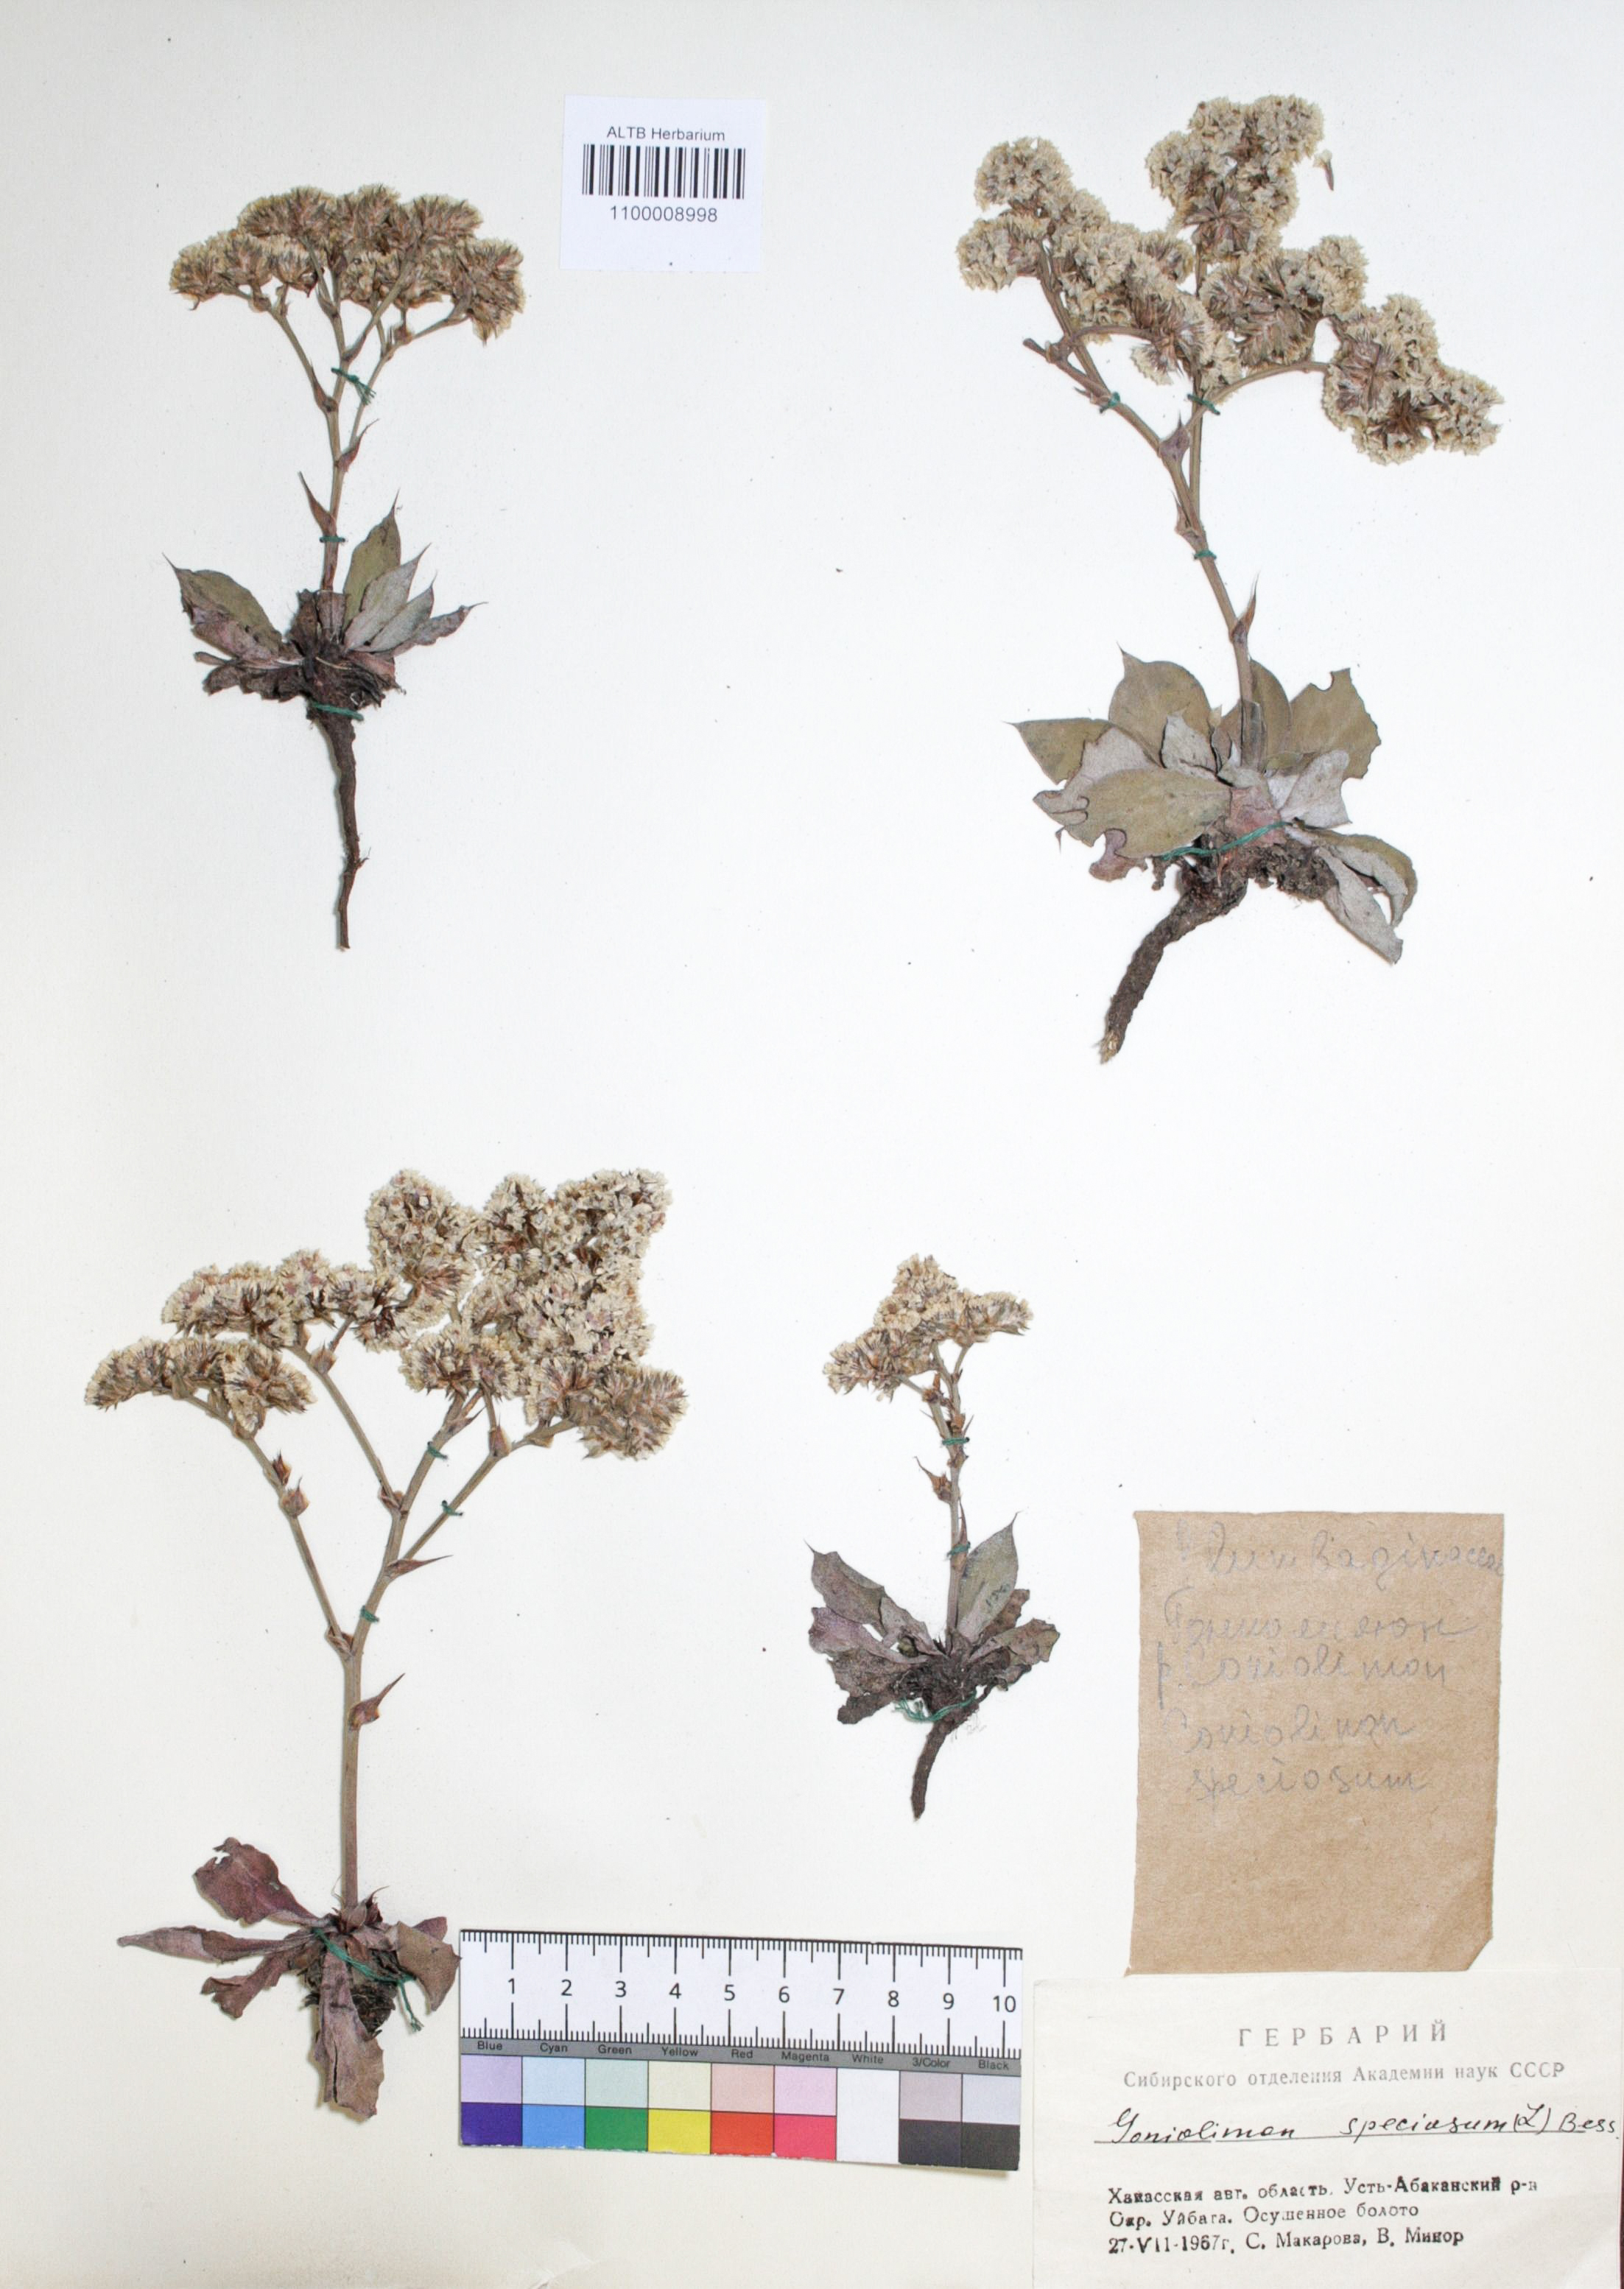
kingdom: Plantae
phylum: Tracheophyta
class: Magnoliopsida
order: Caryophyllales
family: Plumbaginaceae
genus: Goniolimon
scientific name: Goniolimon speciosum
